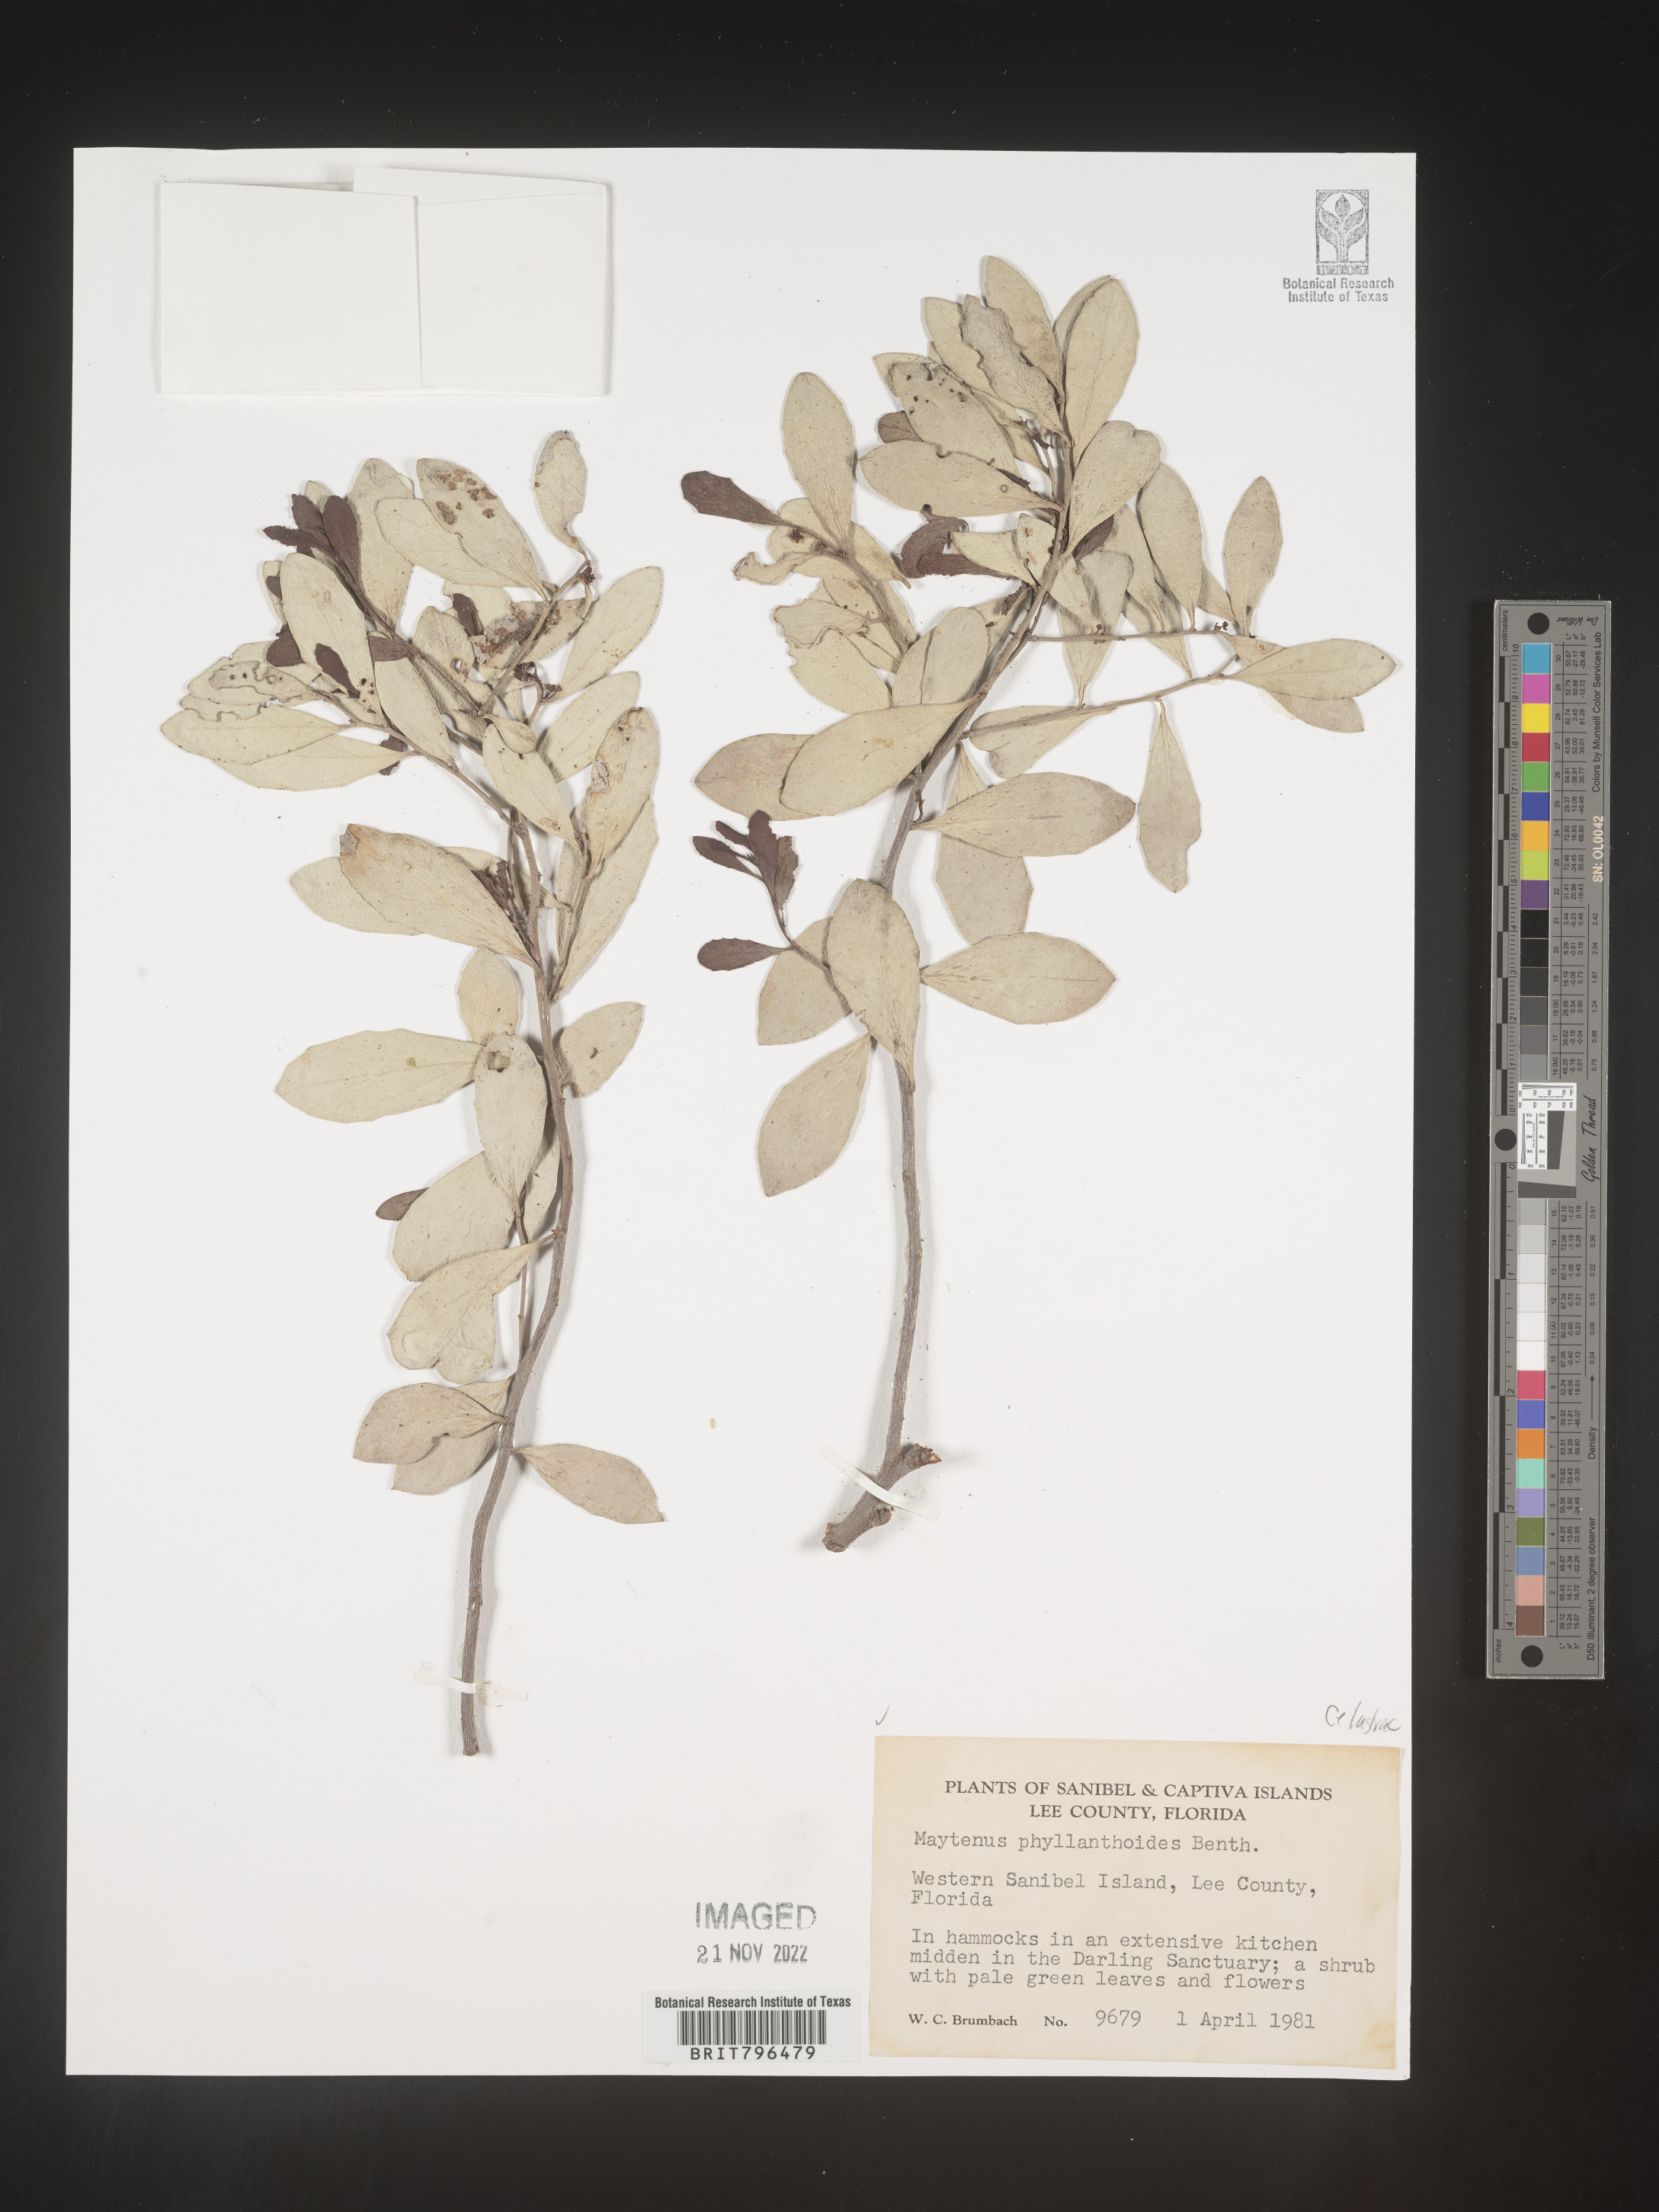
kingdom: Plantae
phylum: Tracheophyta
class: Magnoliopsida
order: Celastrales
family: Celastraceae
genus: Maytenus
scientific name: Maytenus
